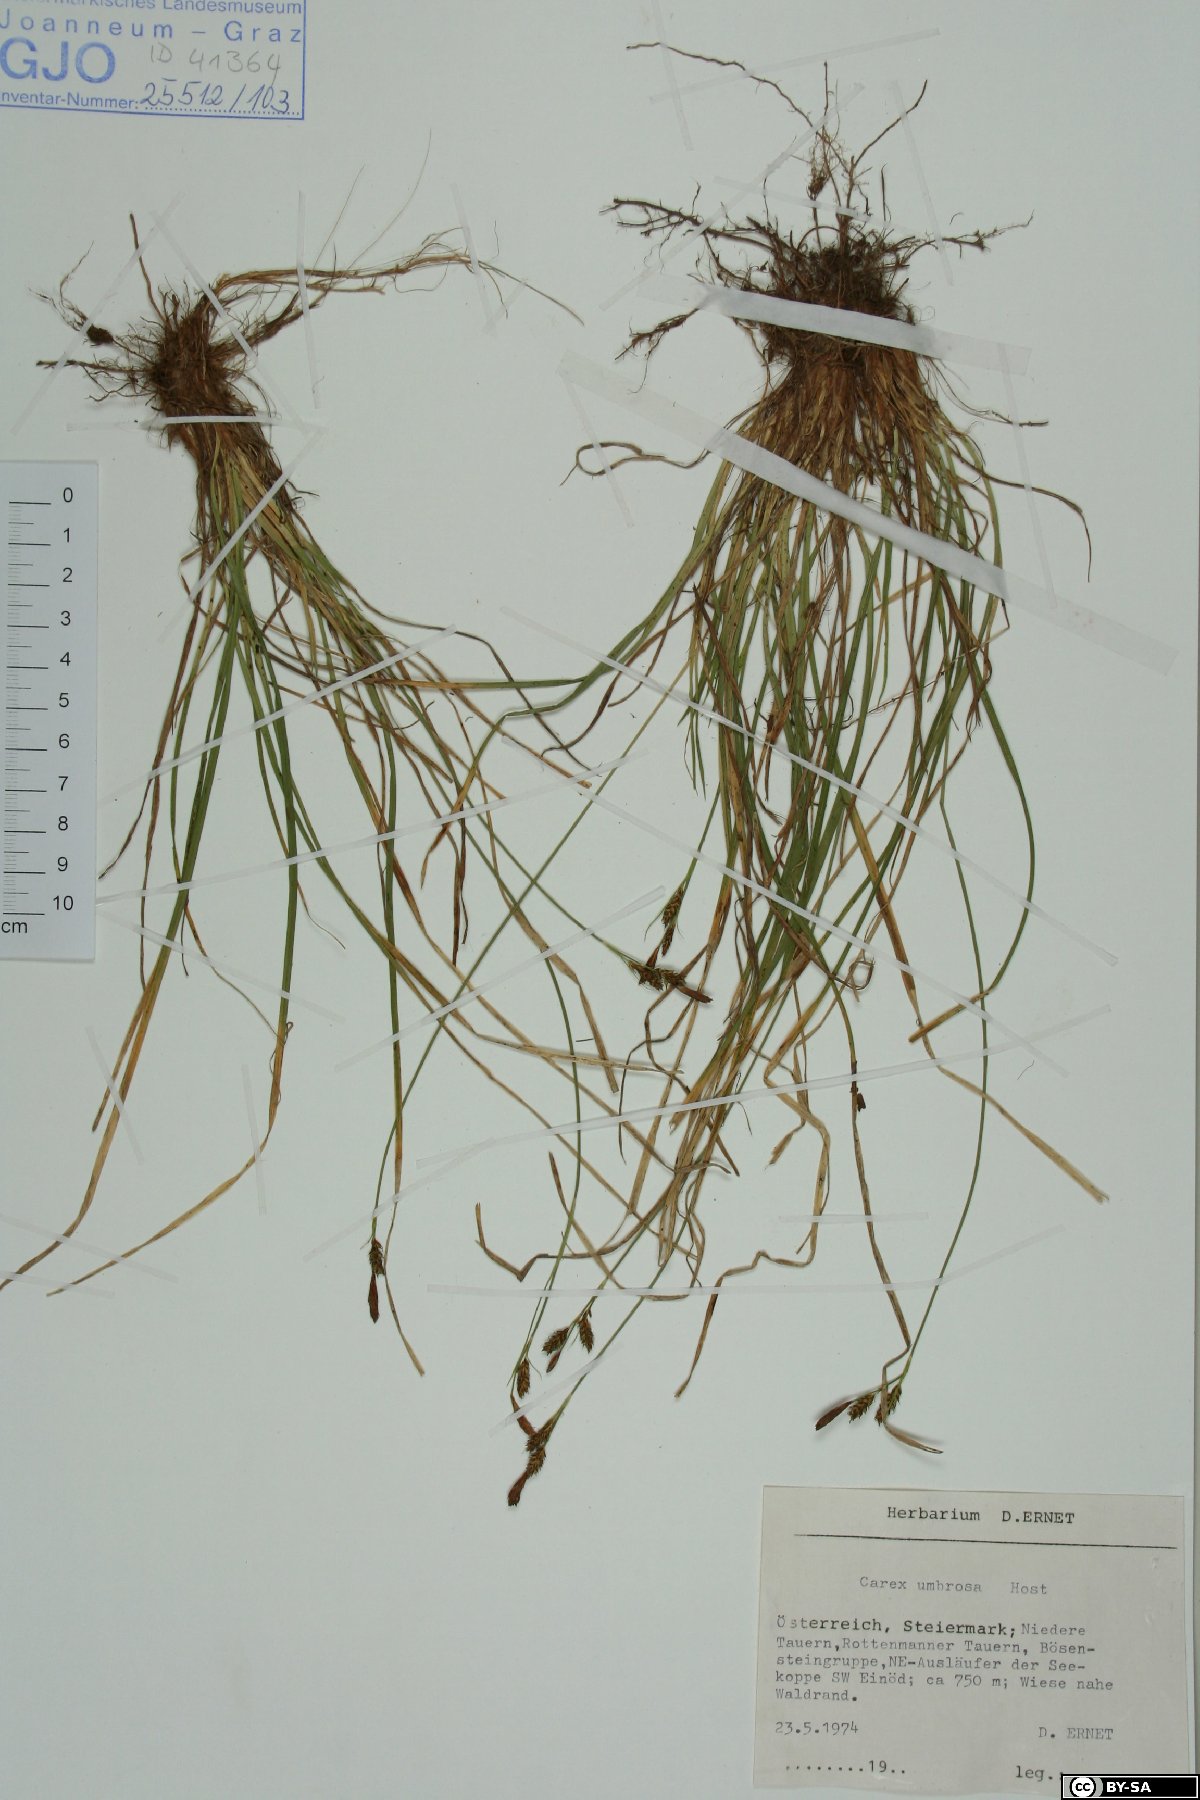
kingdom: Plantae
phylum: Tracheophyta
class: Liliopsida
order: Poales
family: Cyperaceae
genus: Carex
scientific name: Carex umbrosa
